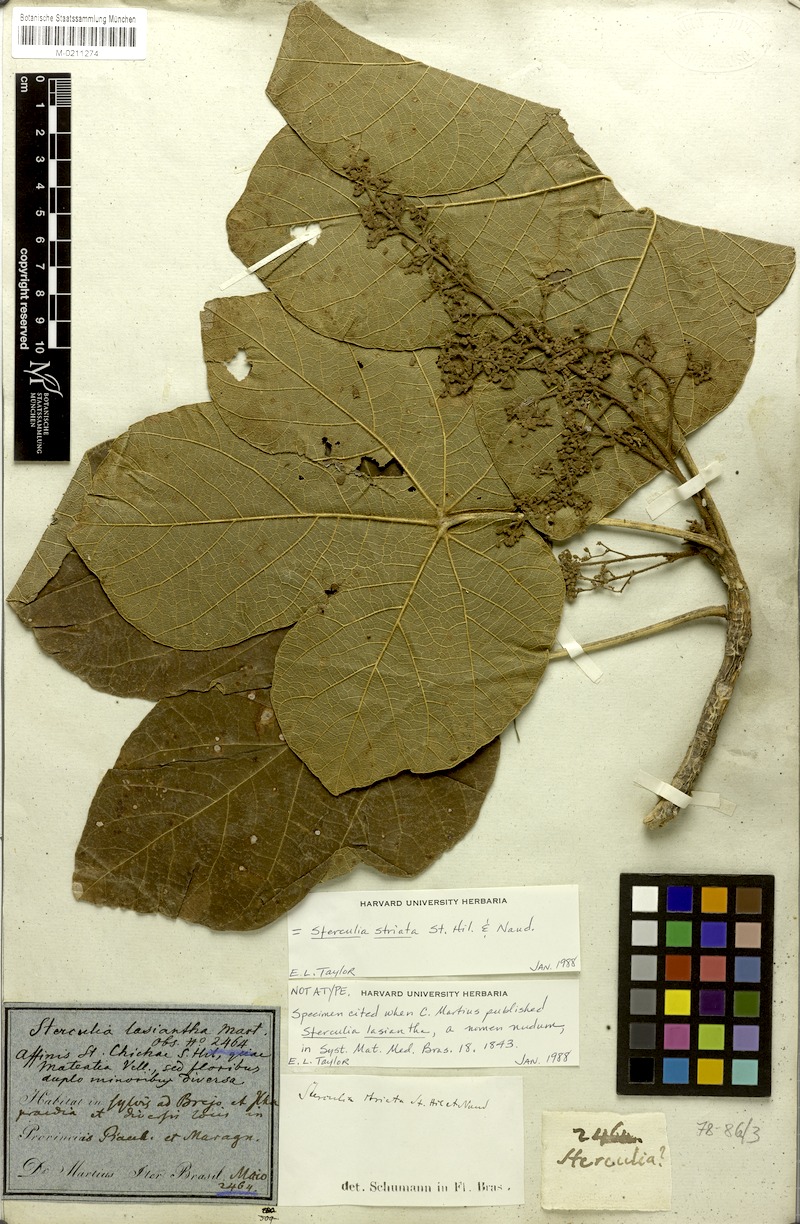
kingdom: Plantae
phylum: Tracheophyta
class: Magnoliopsida
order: Malvales
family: Malvaceae
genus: Sterculia
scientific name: Sterculia striata
